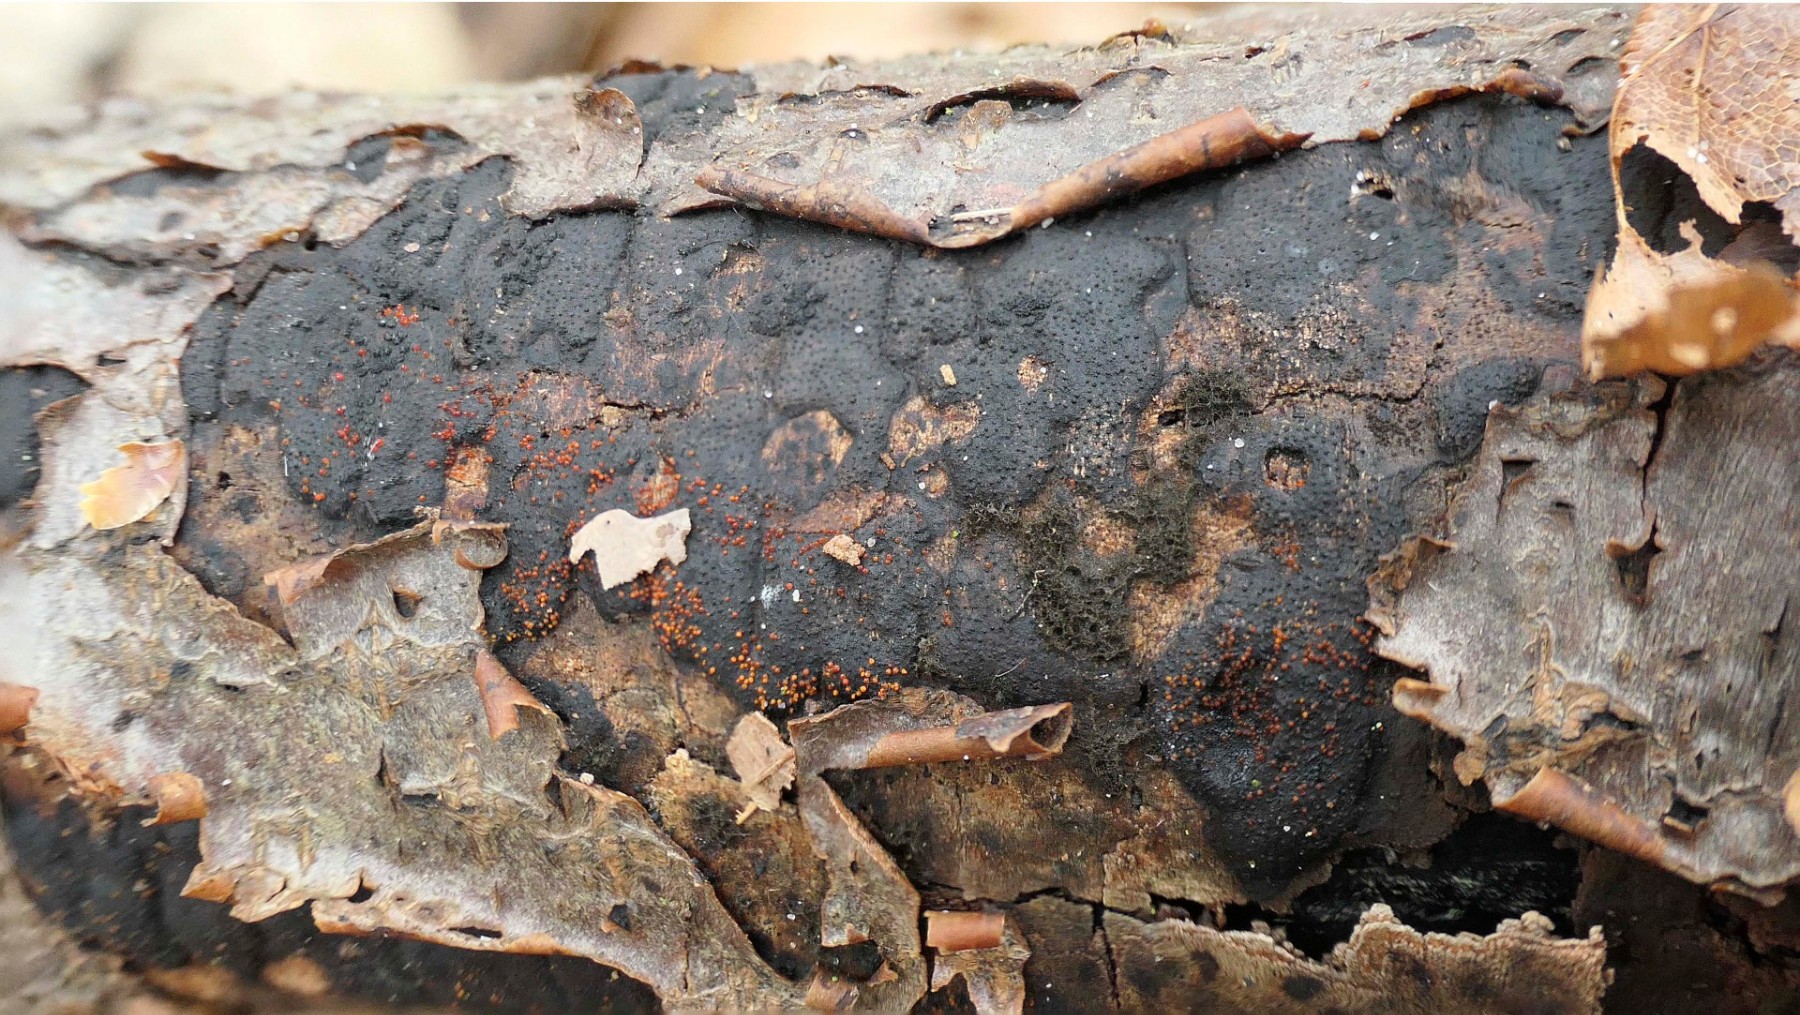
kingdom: Fungi
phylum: Ascomycota
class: Sordariomycetes
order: Hypocreales
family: Nectriaceae
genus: Dialonectria
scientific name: Dialonectria episphaeria
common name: kulskorpe-cinnobersvamp
